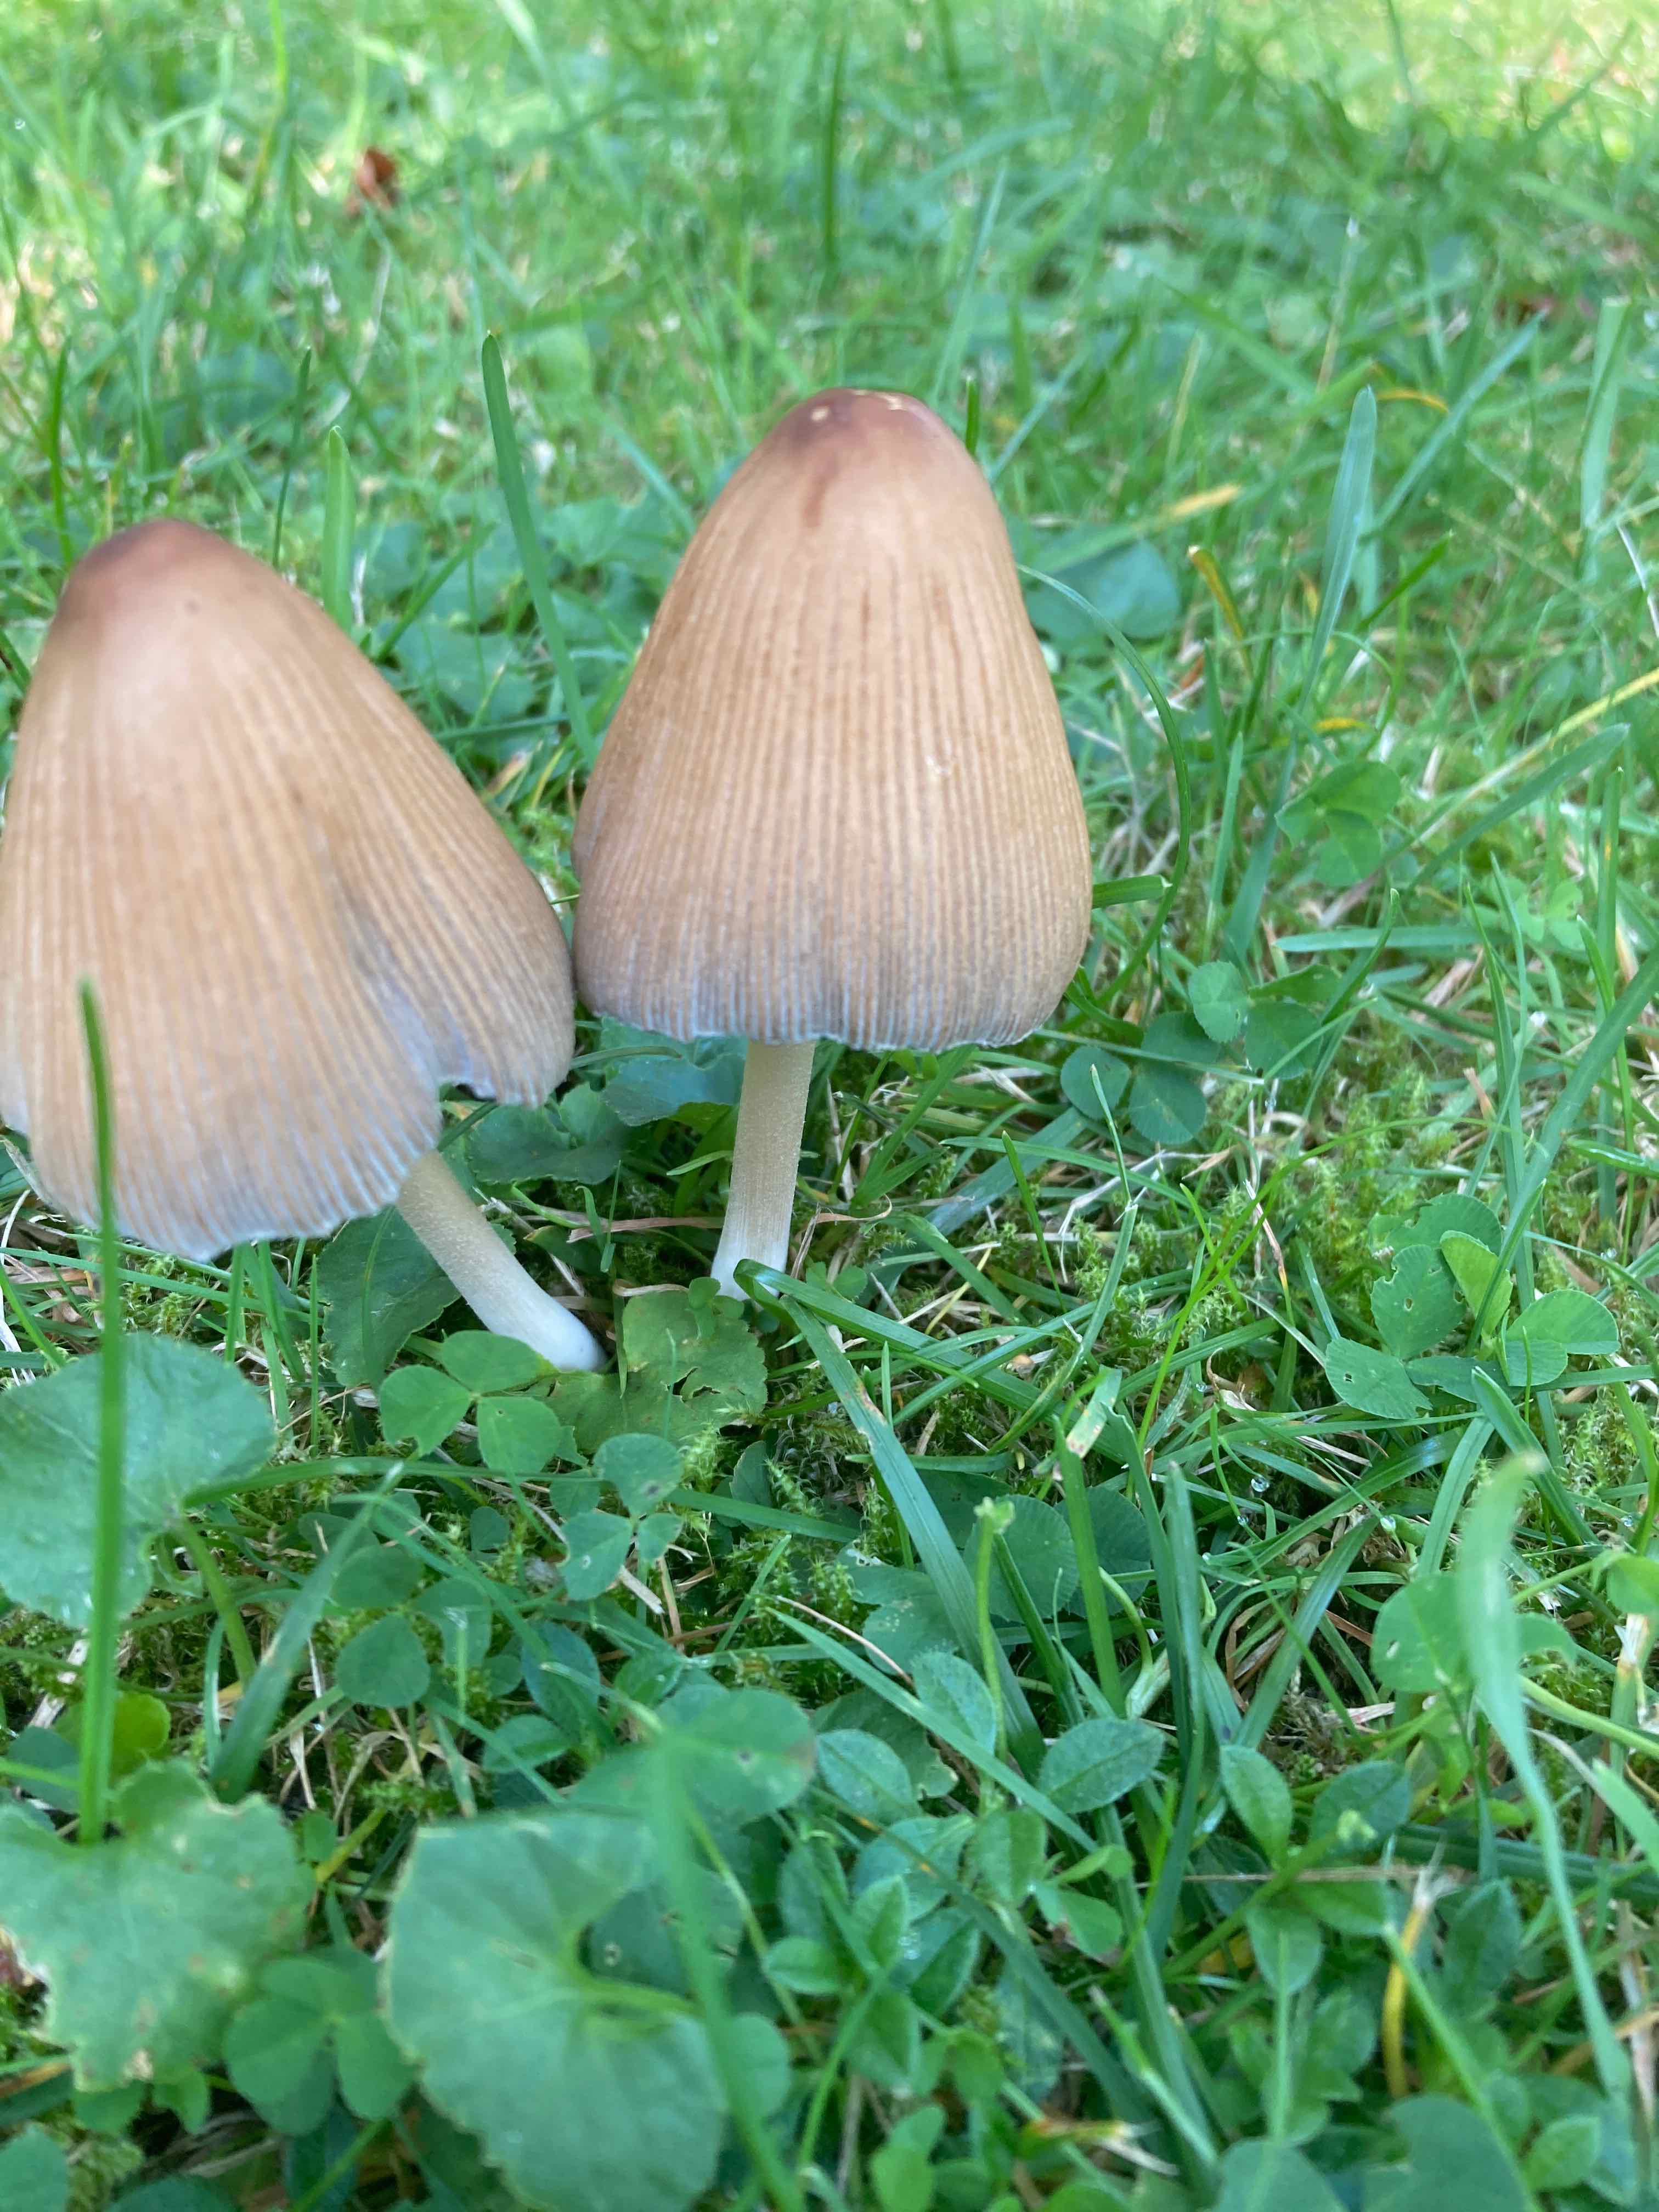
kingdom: Fungi
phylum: Basidiomycota
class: Agaricomycetes
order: Agaricales
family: Psathyrellaceae
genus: Coprinellus
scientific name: Coprinellus
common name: blækhat
